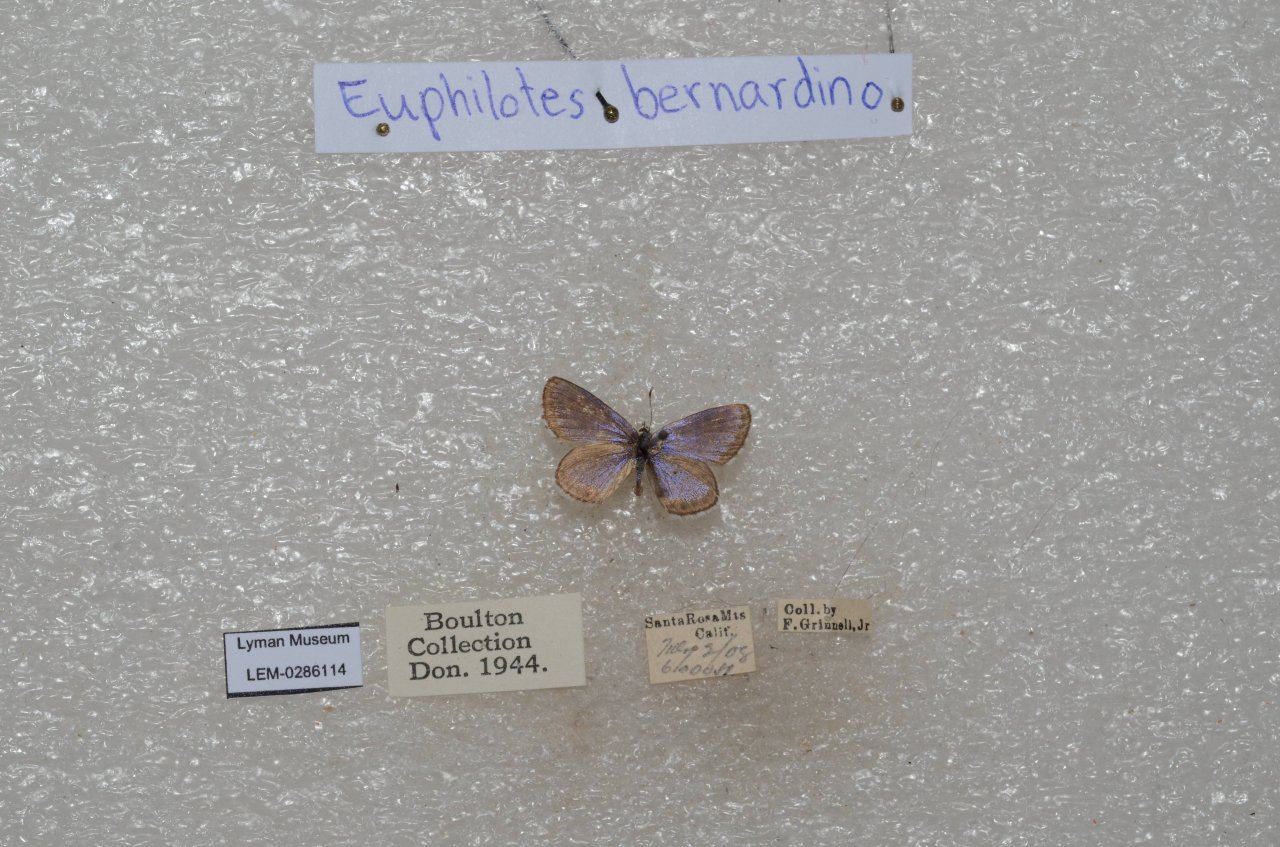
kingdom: Animalia
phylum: Arthropoda
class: Insecta
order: Lepidoptera
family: Lycaenidae
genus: Euphilotes
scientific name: Euphilotes battoides
